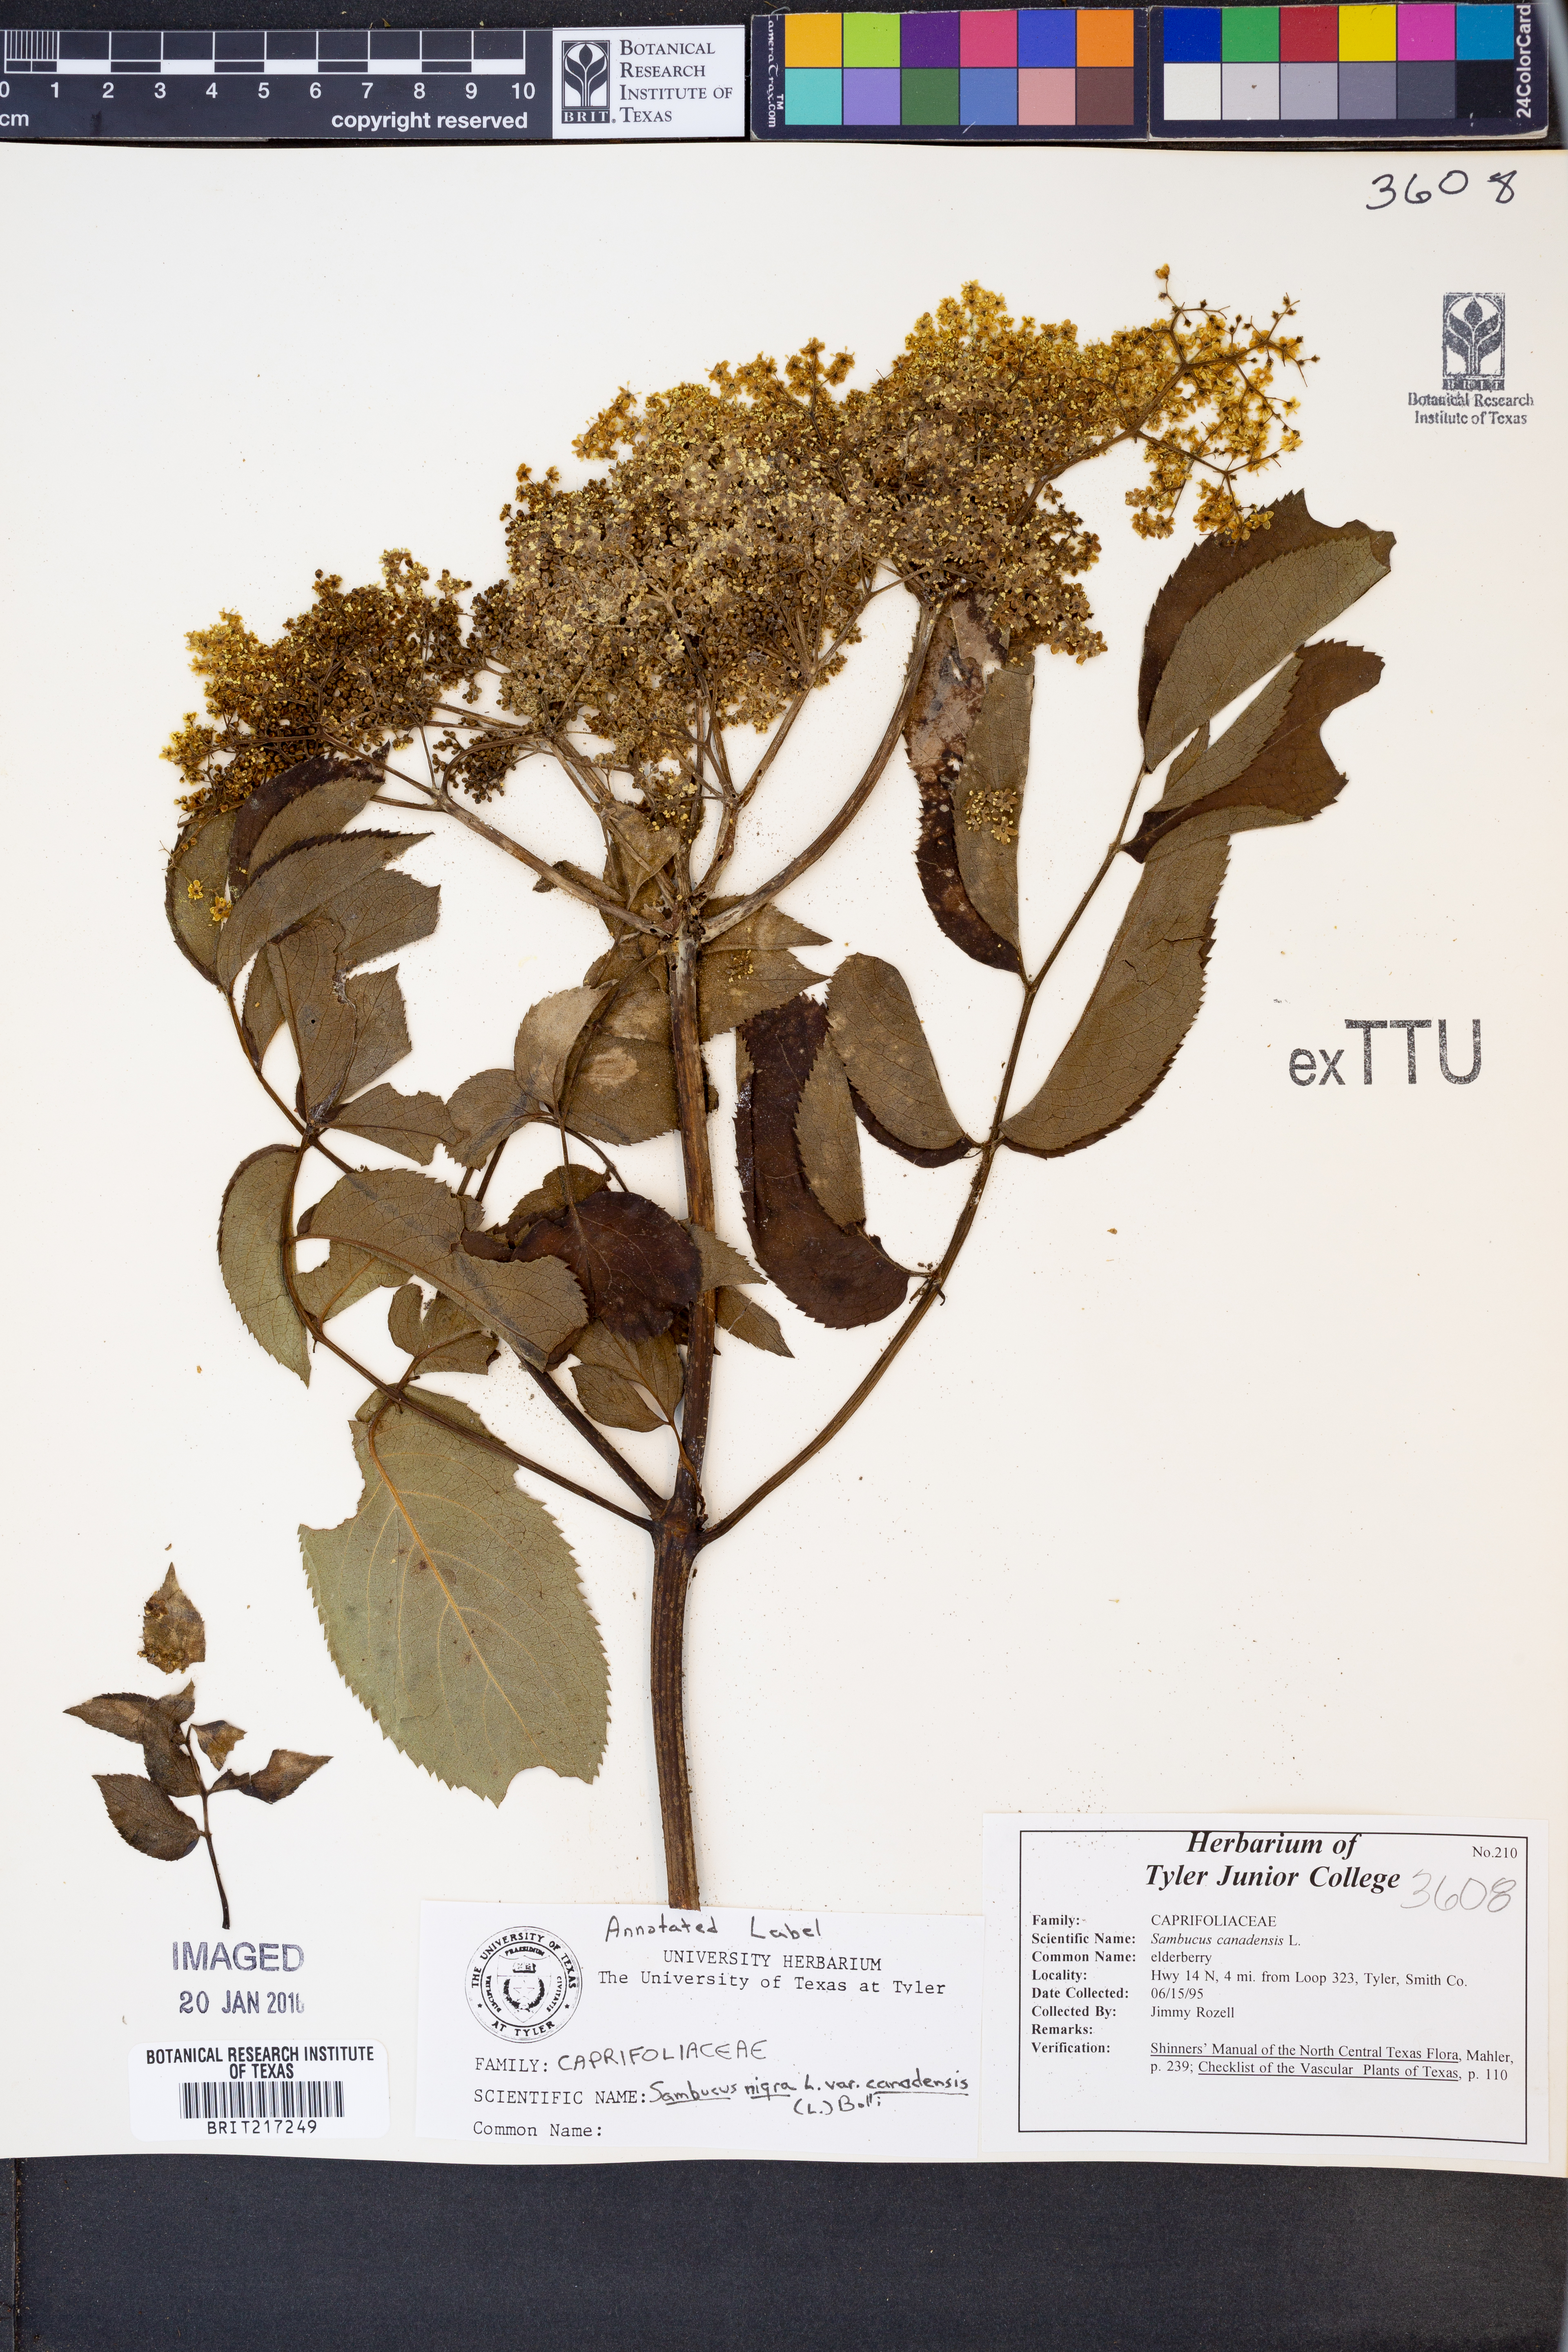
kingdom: Plantae
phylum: Tracheophyta
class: Magnoliopsida
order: Dipsacales
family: Viburnaceae
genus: Sambucus
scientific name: Sambucus canadensis
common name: American elder
